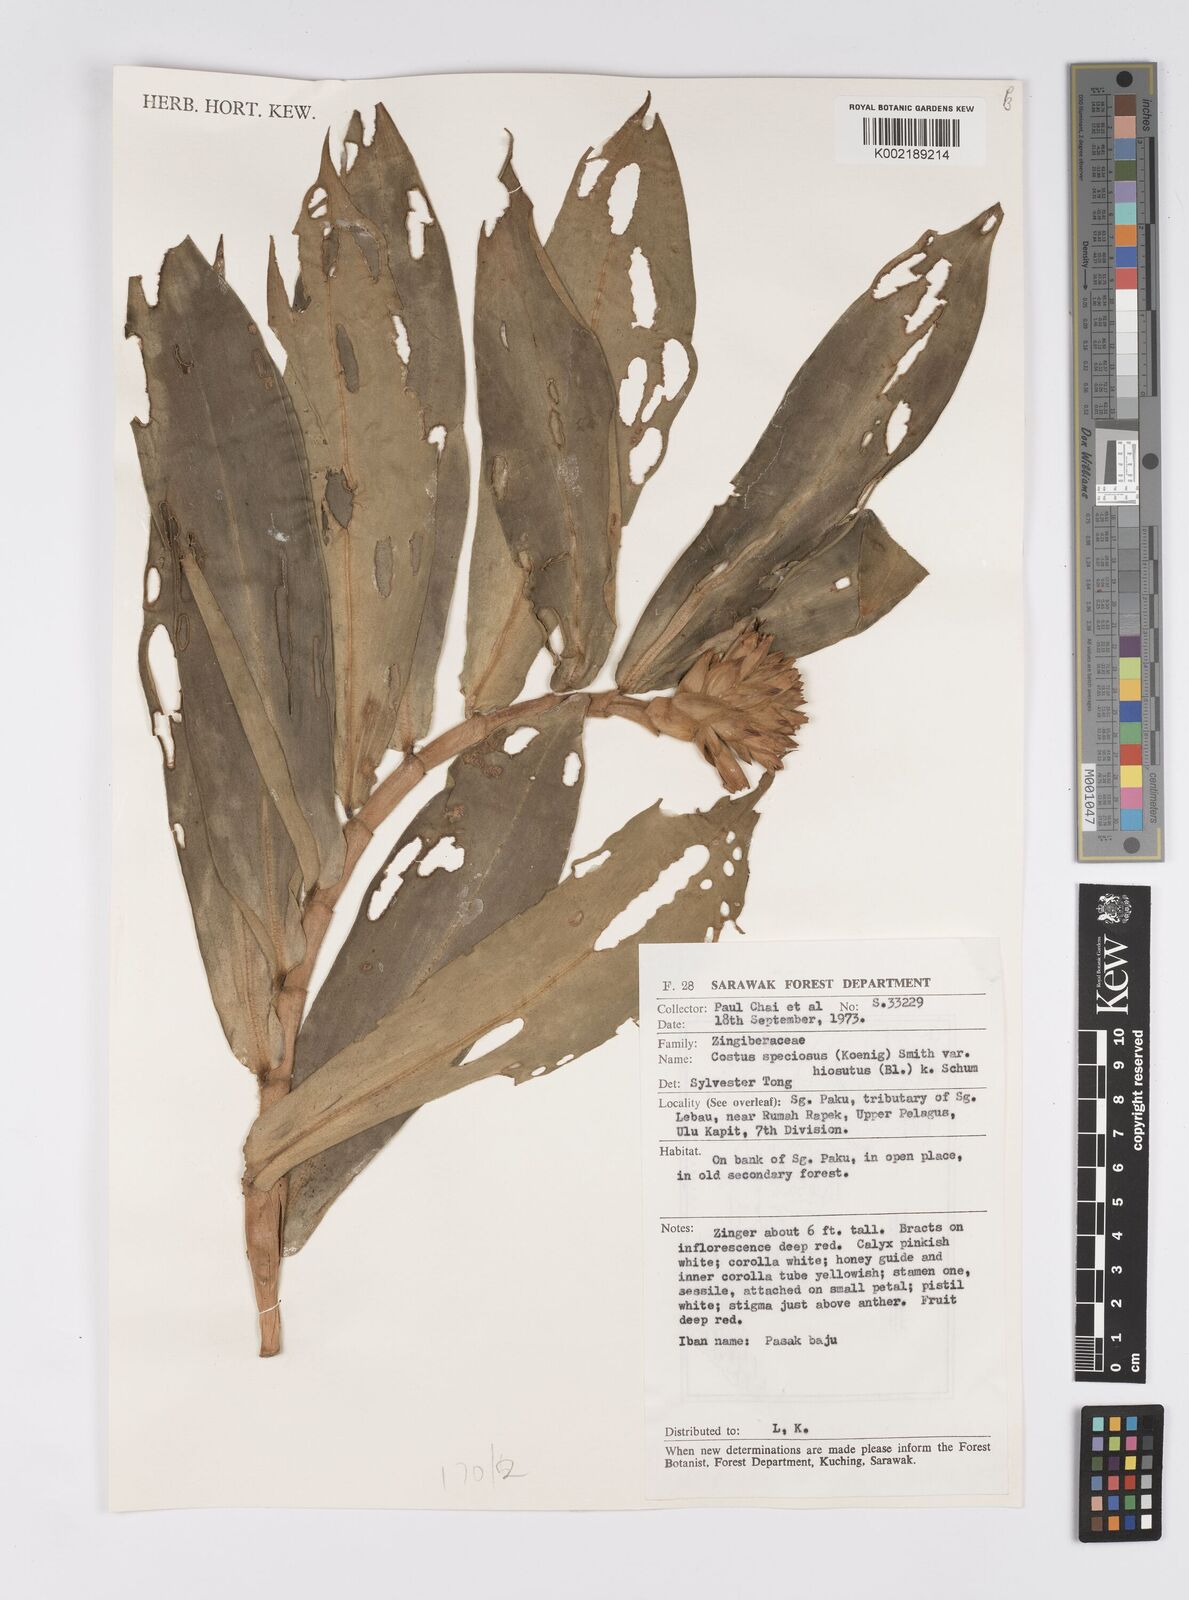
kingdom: Plantae
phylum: Tracheophyta
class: Liliopsida
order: Zingiberales
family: Costaceae
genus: Hellenia
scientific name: Hellenia speciosa
